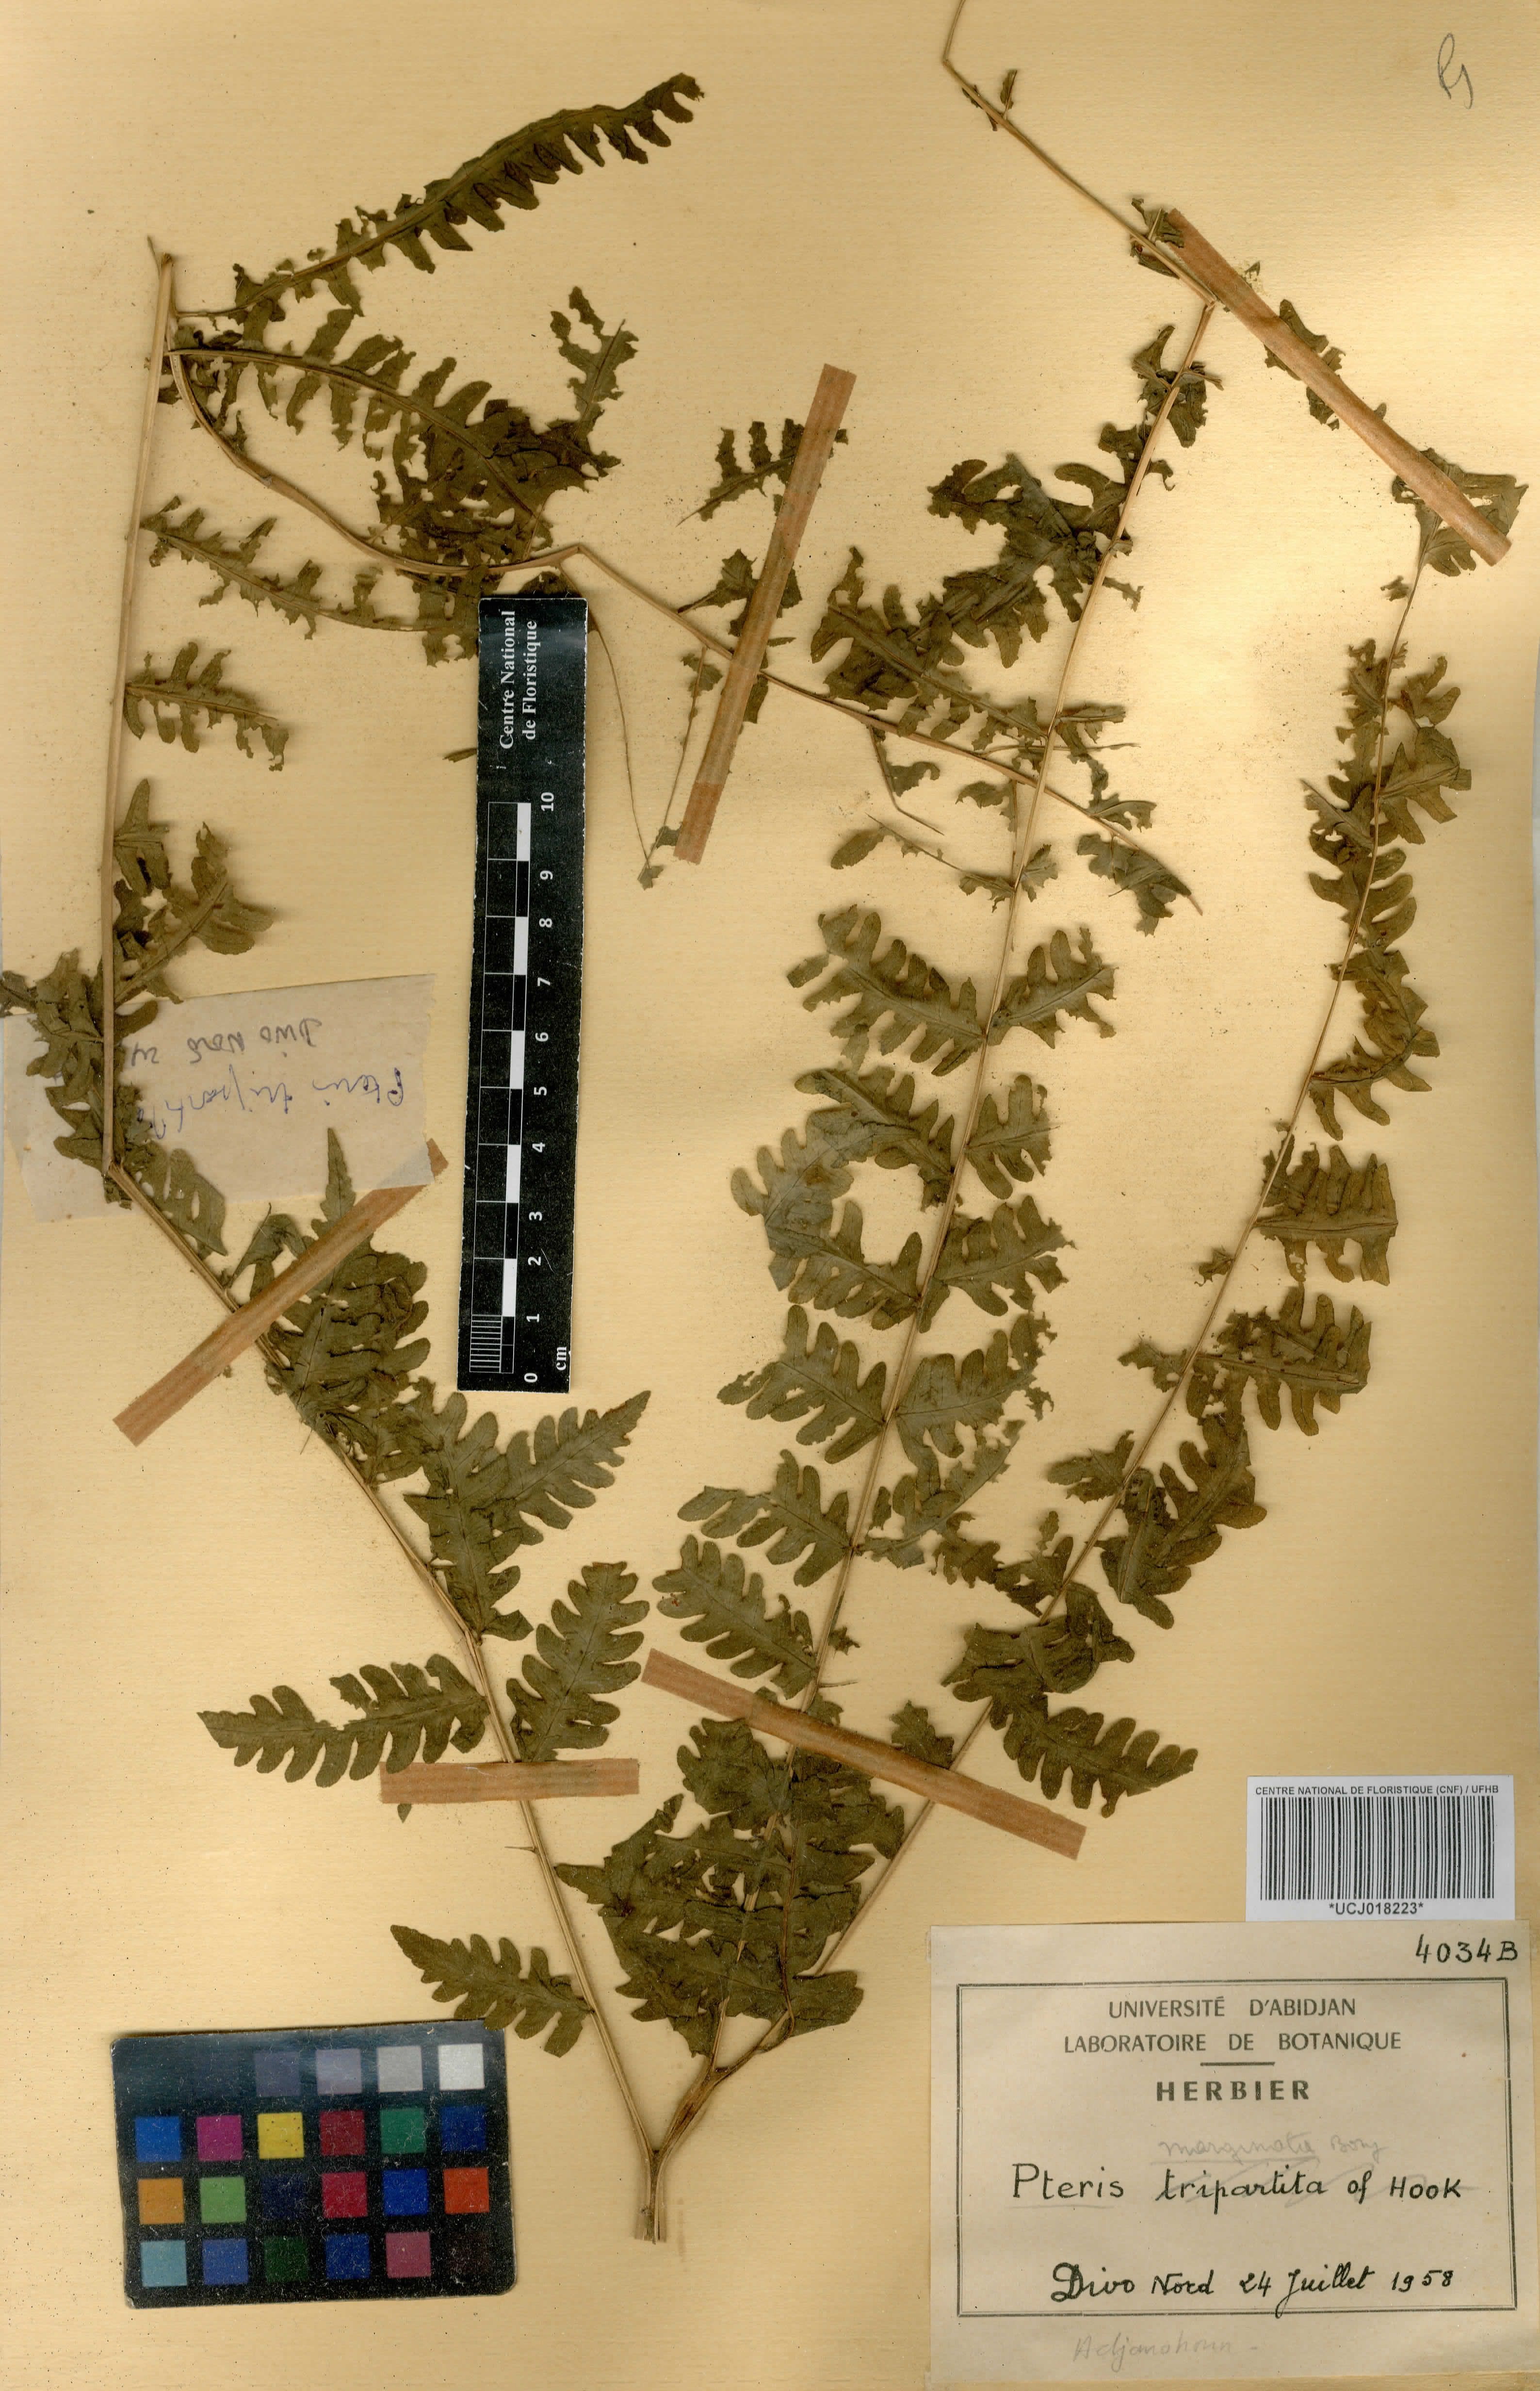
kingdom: Plantae
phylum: Tracheophyta
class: Polypodiopsida
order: Polypodiales
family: Pteridaceae
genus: Pteris
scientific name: Pteris tripartita
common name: Giant brake
